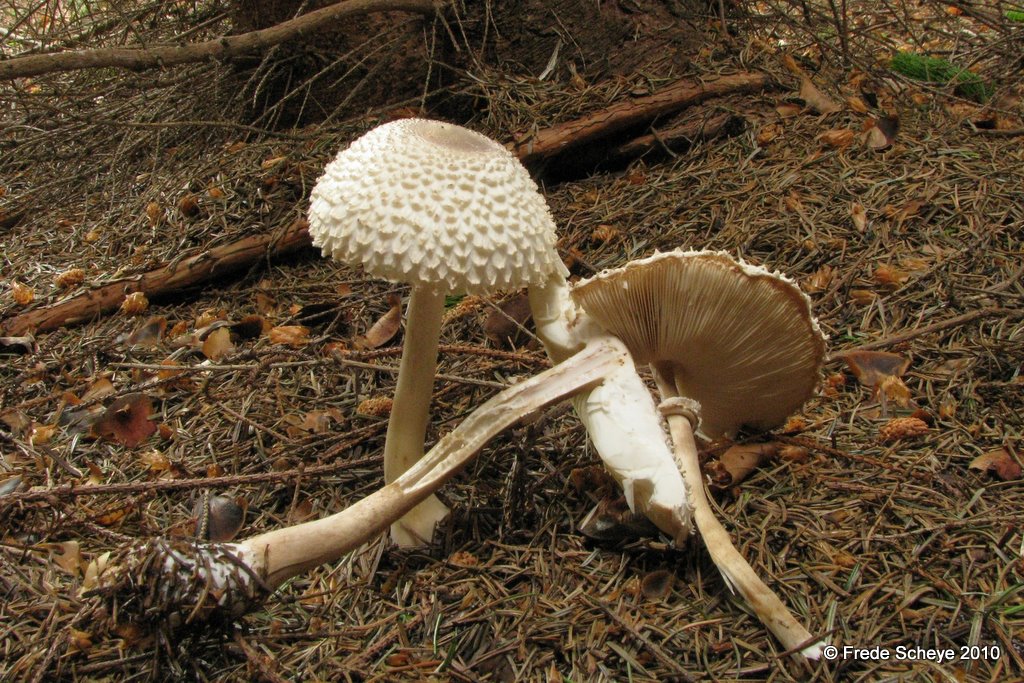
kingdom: Fungi
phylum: Basidiomycota
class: Agaricomycetes
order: Agaricales
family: Agaricaceae
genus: Leucoagaricus
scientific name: Leucoagaricus nympharum
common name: gran-silkehat
